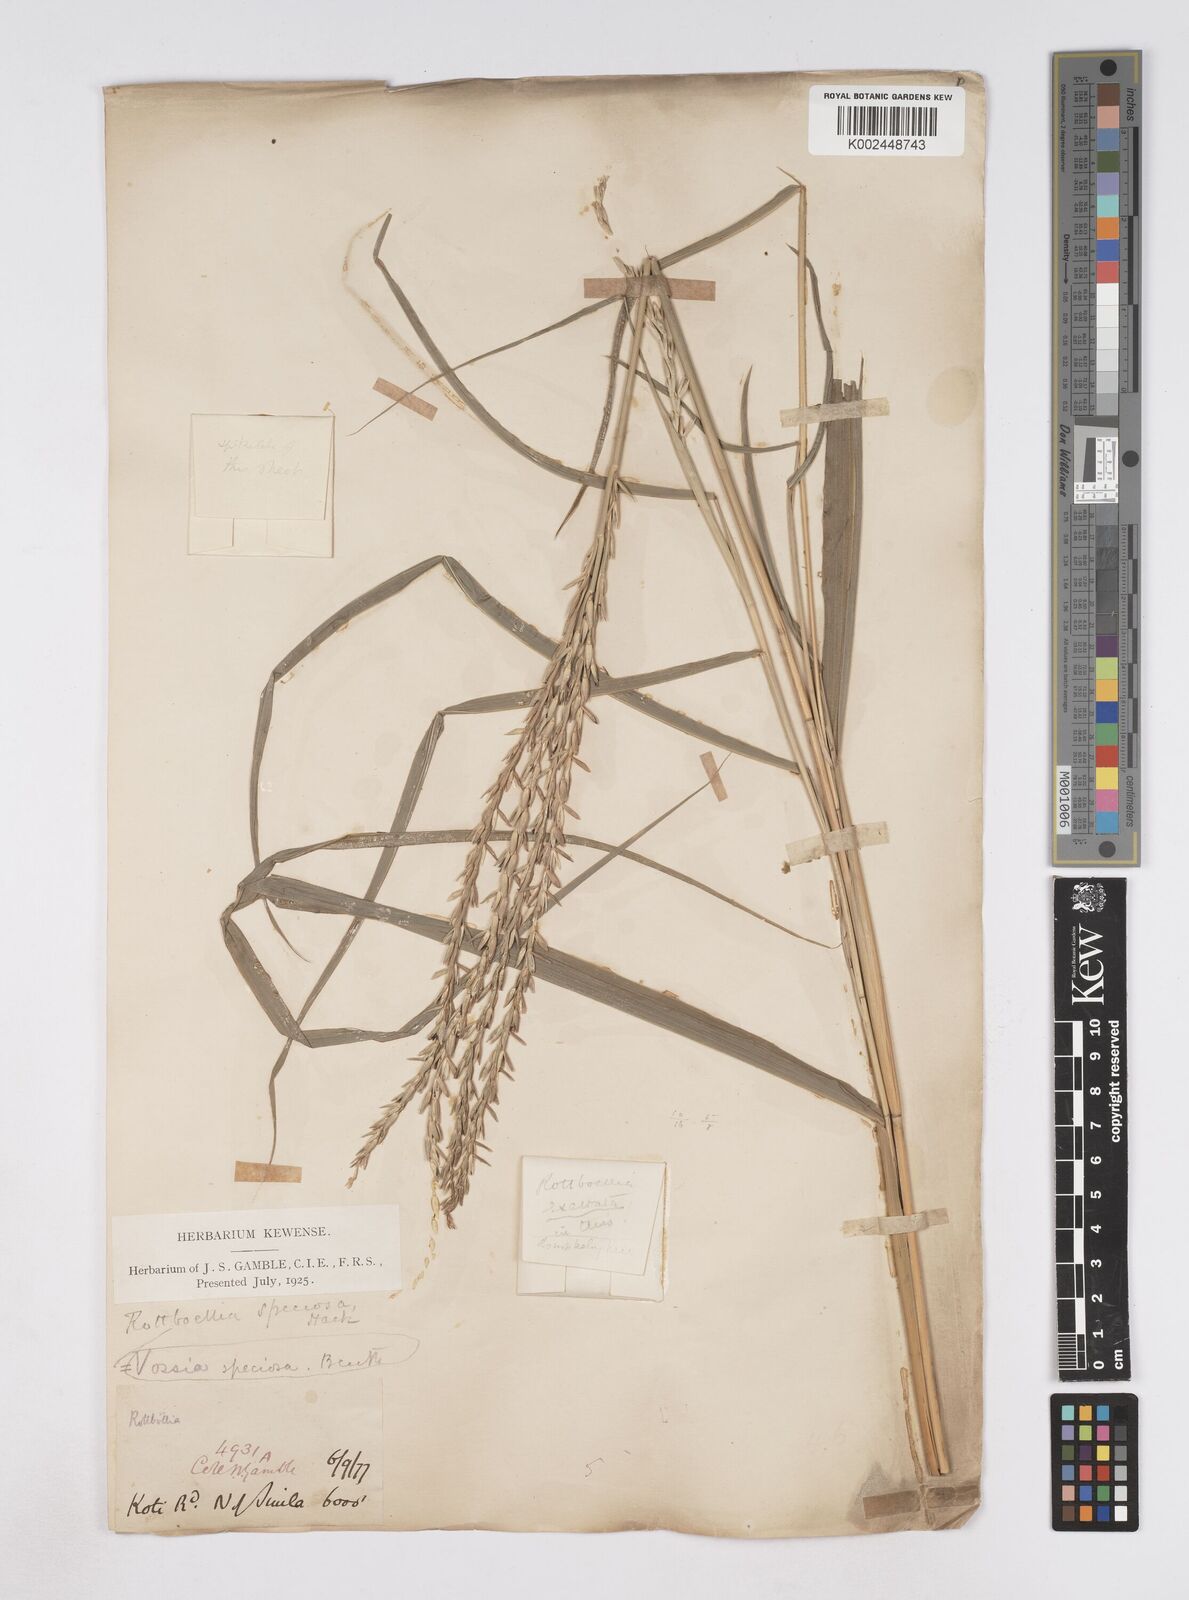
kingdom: Plantae
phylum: Tracheophyta
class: Liliopsida
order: Poales
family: Poaceae
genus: Phacelurus
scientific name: Phacelurus speciosus
